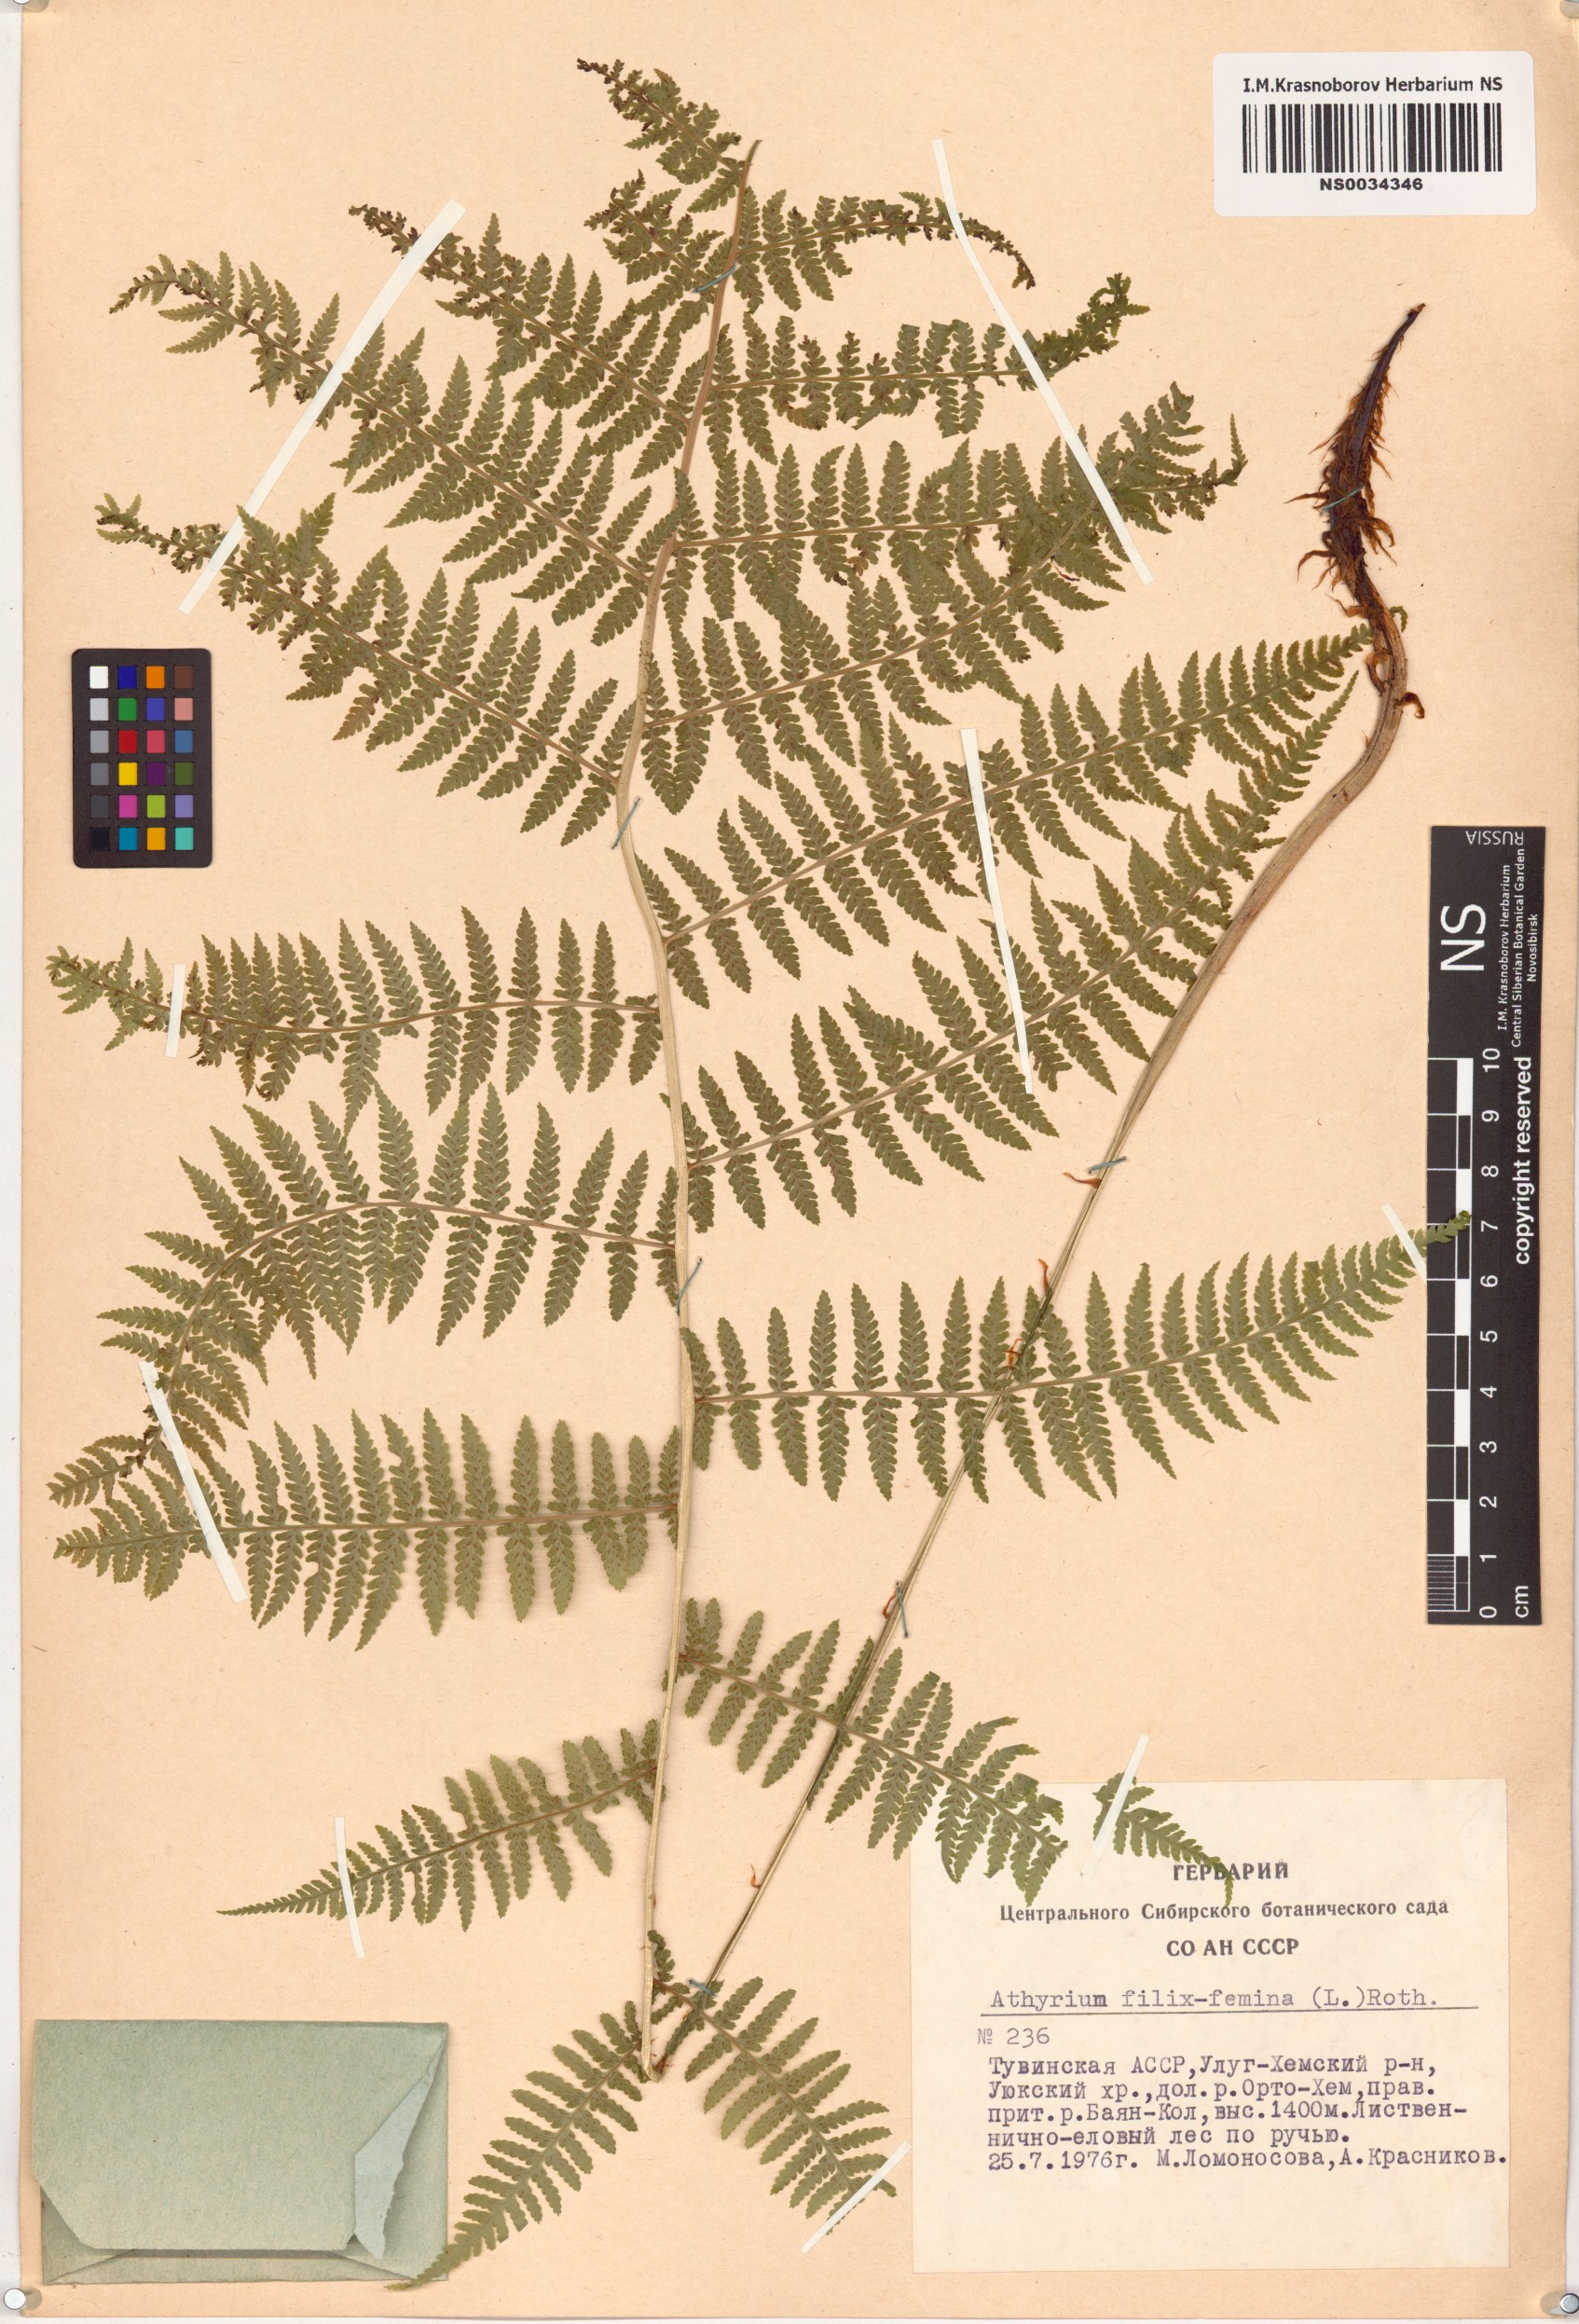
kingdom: Plantae
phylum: Tracheophyta
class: Polypodiopsida
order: Polypodiales
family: Athyriaceae
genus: Athyrium
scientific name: Athyrium filix-femina
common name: Lady fern
